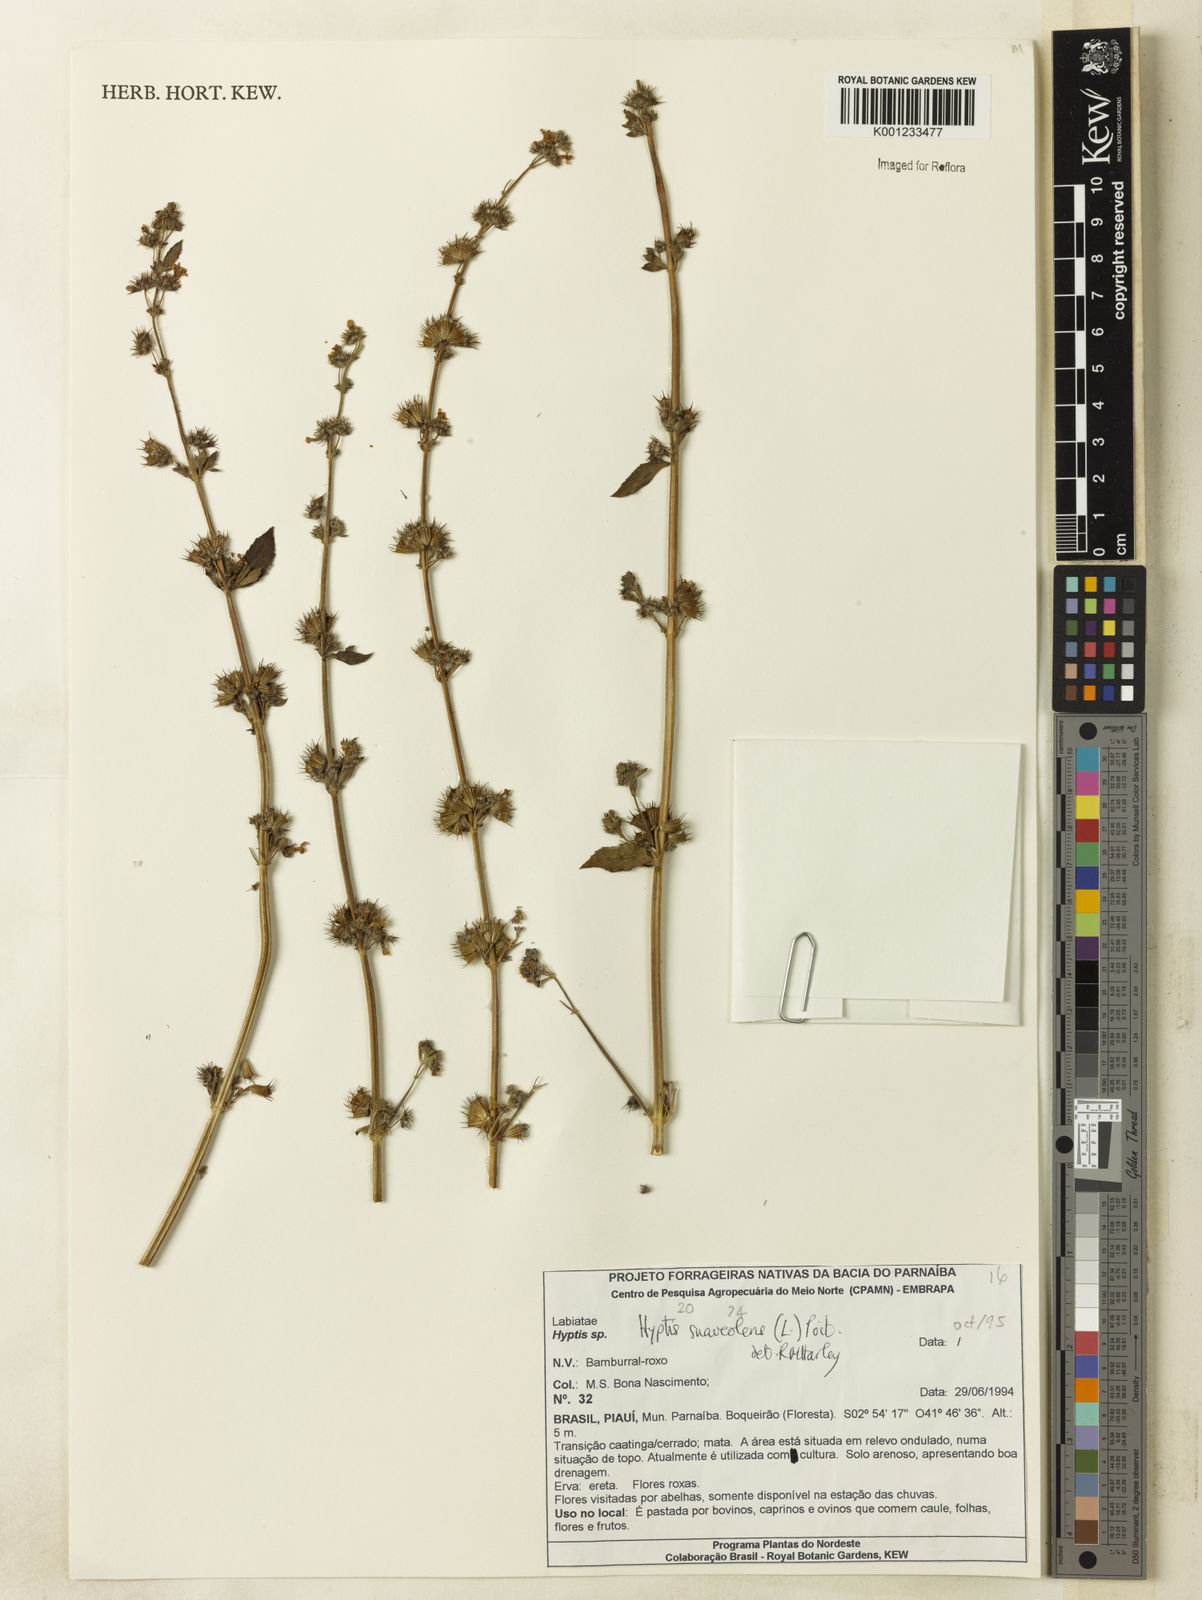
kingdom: Plantae
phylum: Tracheophyta
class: Magnoliopsida
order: Lamiales
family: Lamiaceae
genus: Mesosphaerum
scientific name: Mesosphaerum suaveolens
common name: Pignut
